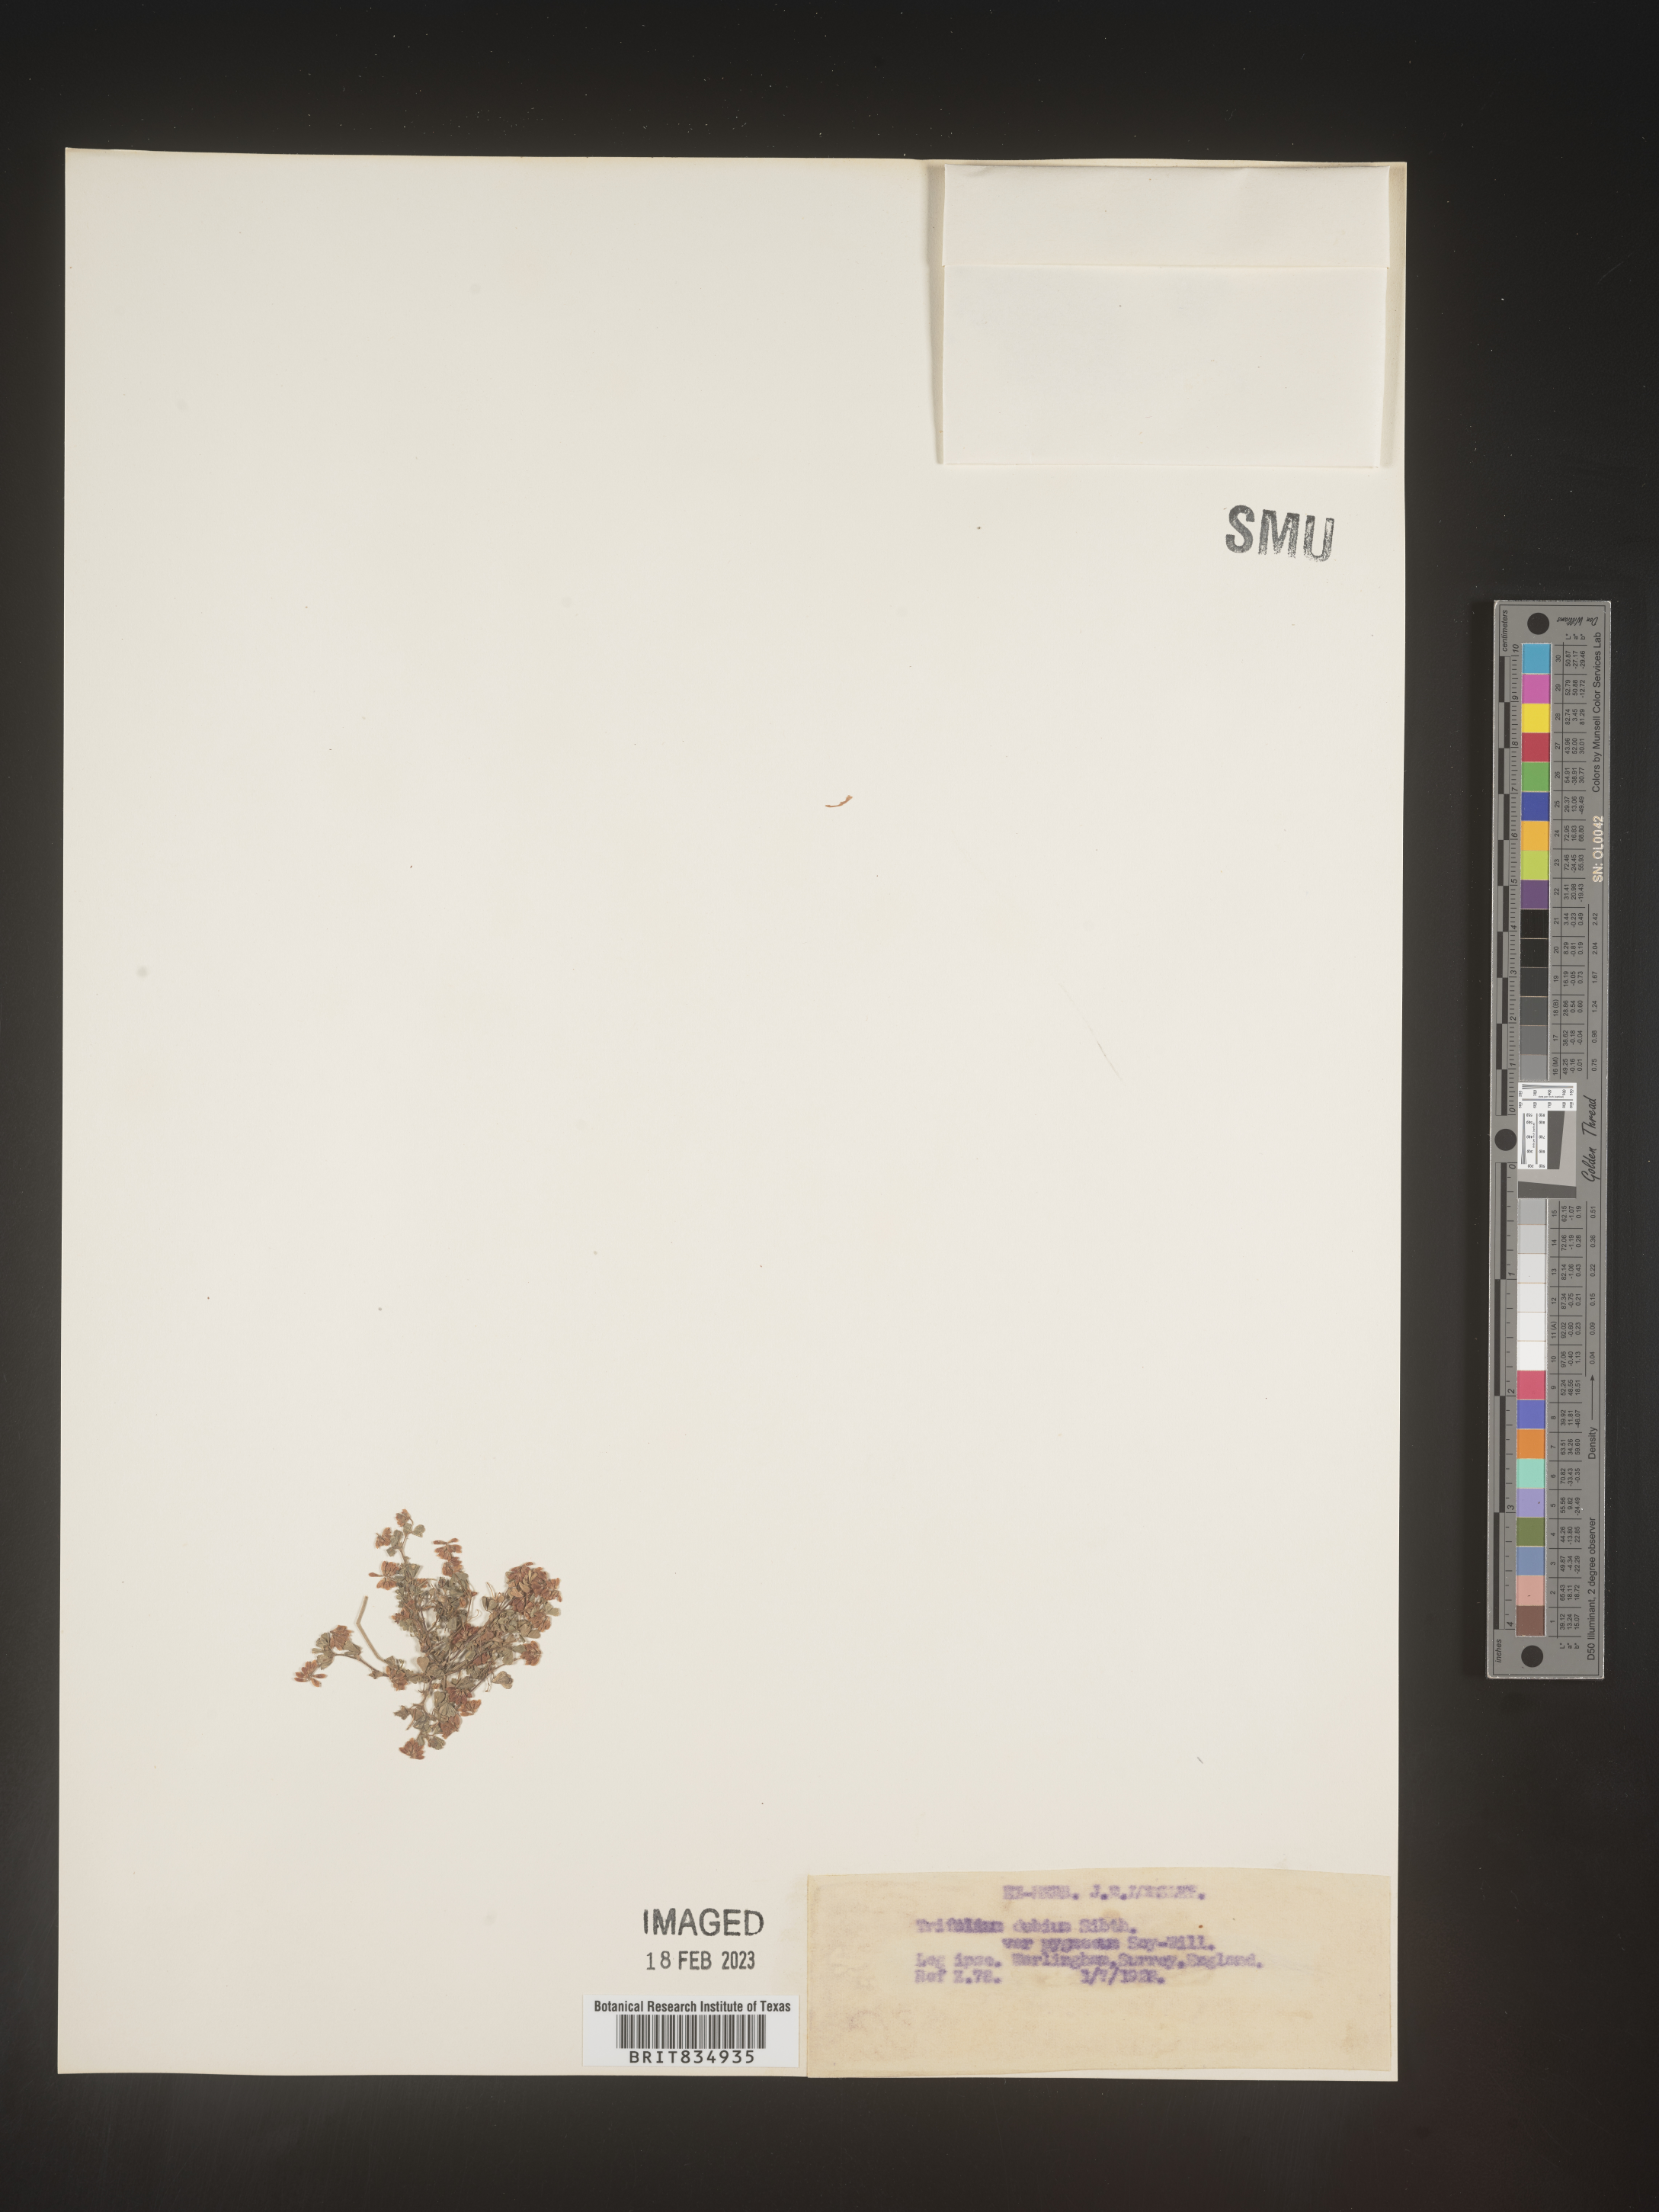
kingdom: Plantae
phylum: Tracheophyta
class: Magnoliopsida
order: Fabales
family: Fabaceae
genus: Trifolium
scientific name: Trifolium
